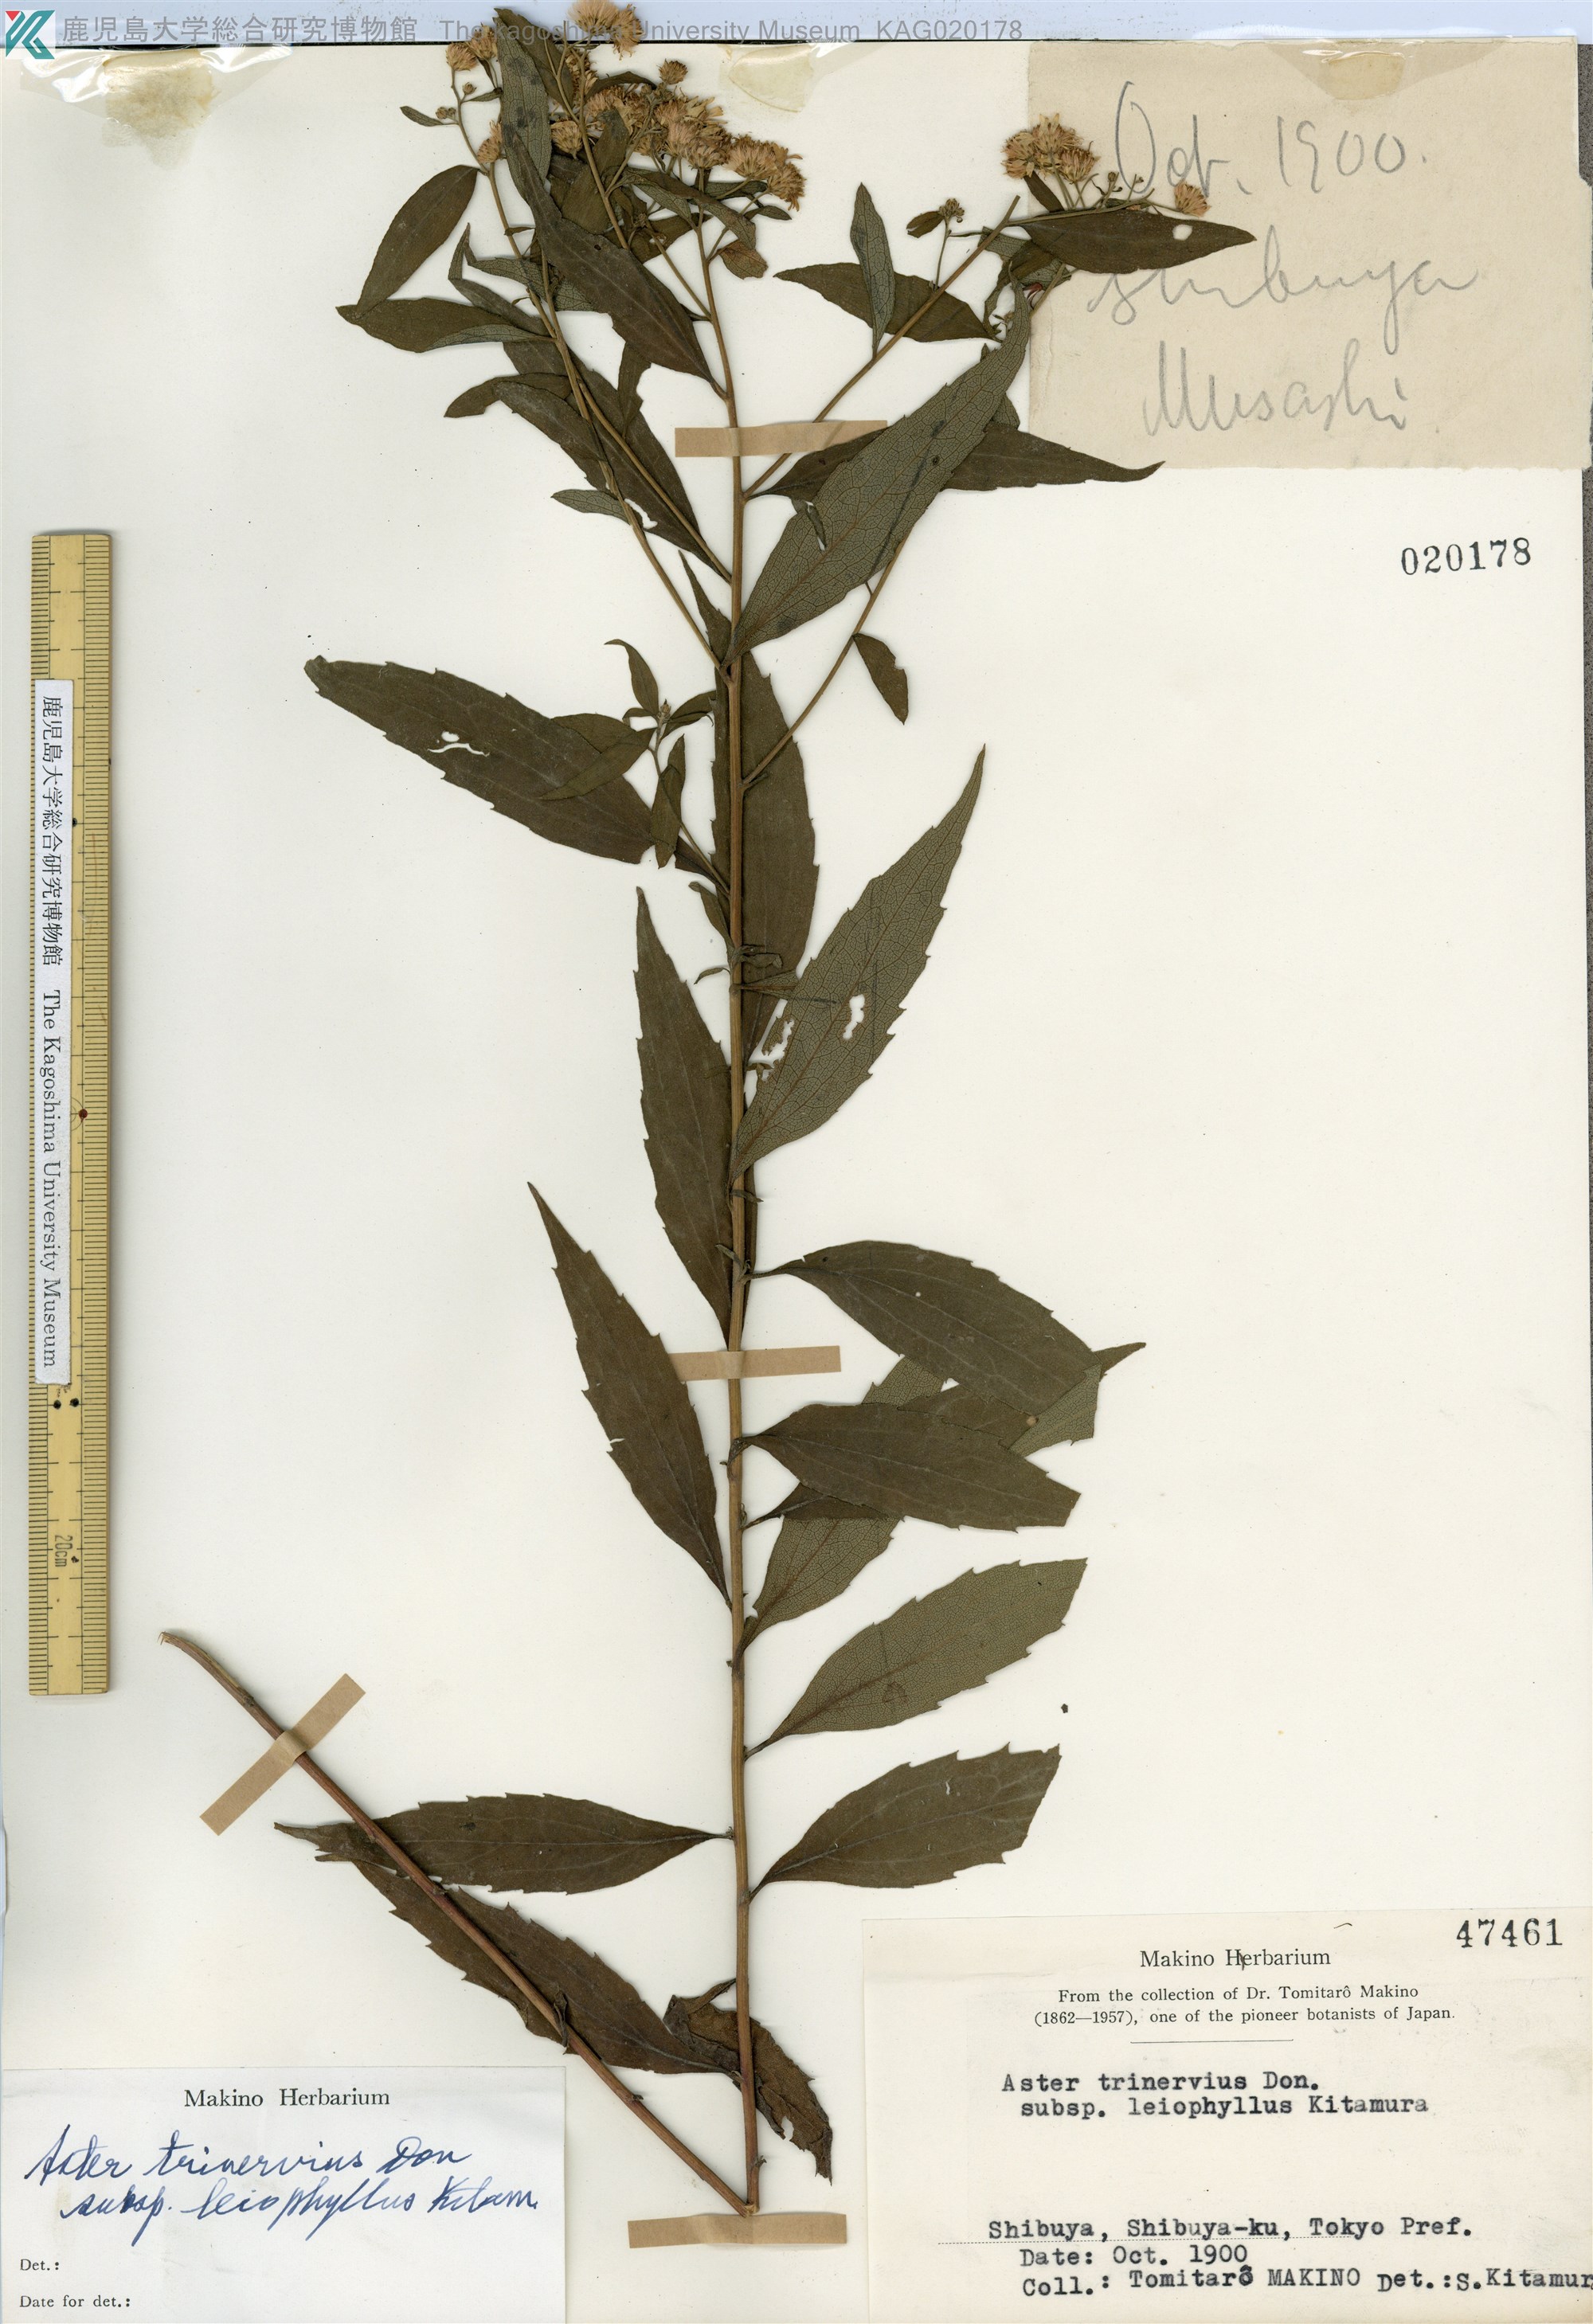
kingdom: Plantae
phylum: Tracheophyta
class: Magnoliopsida
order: Asterales
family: Asteraceae
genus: Aster
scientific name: Aster ageratoides
